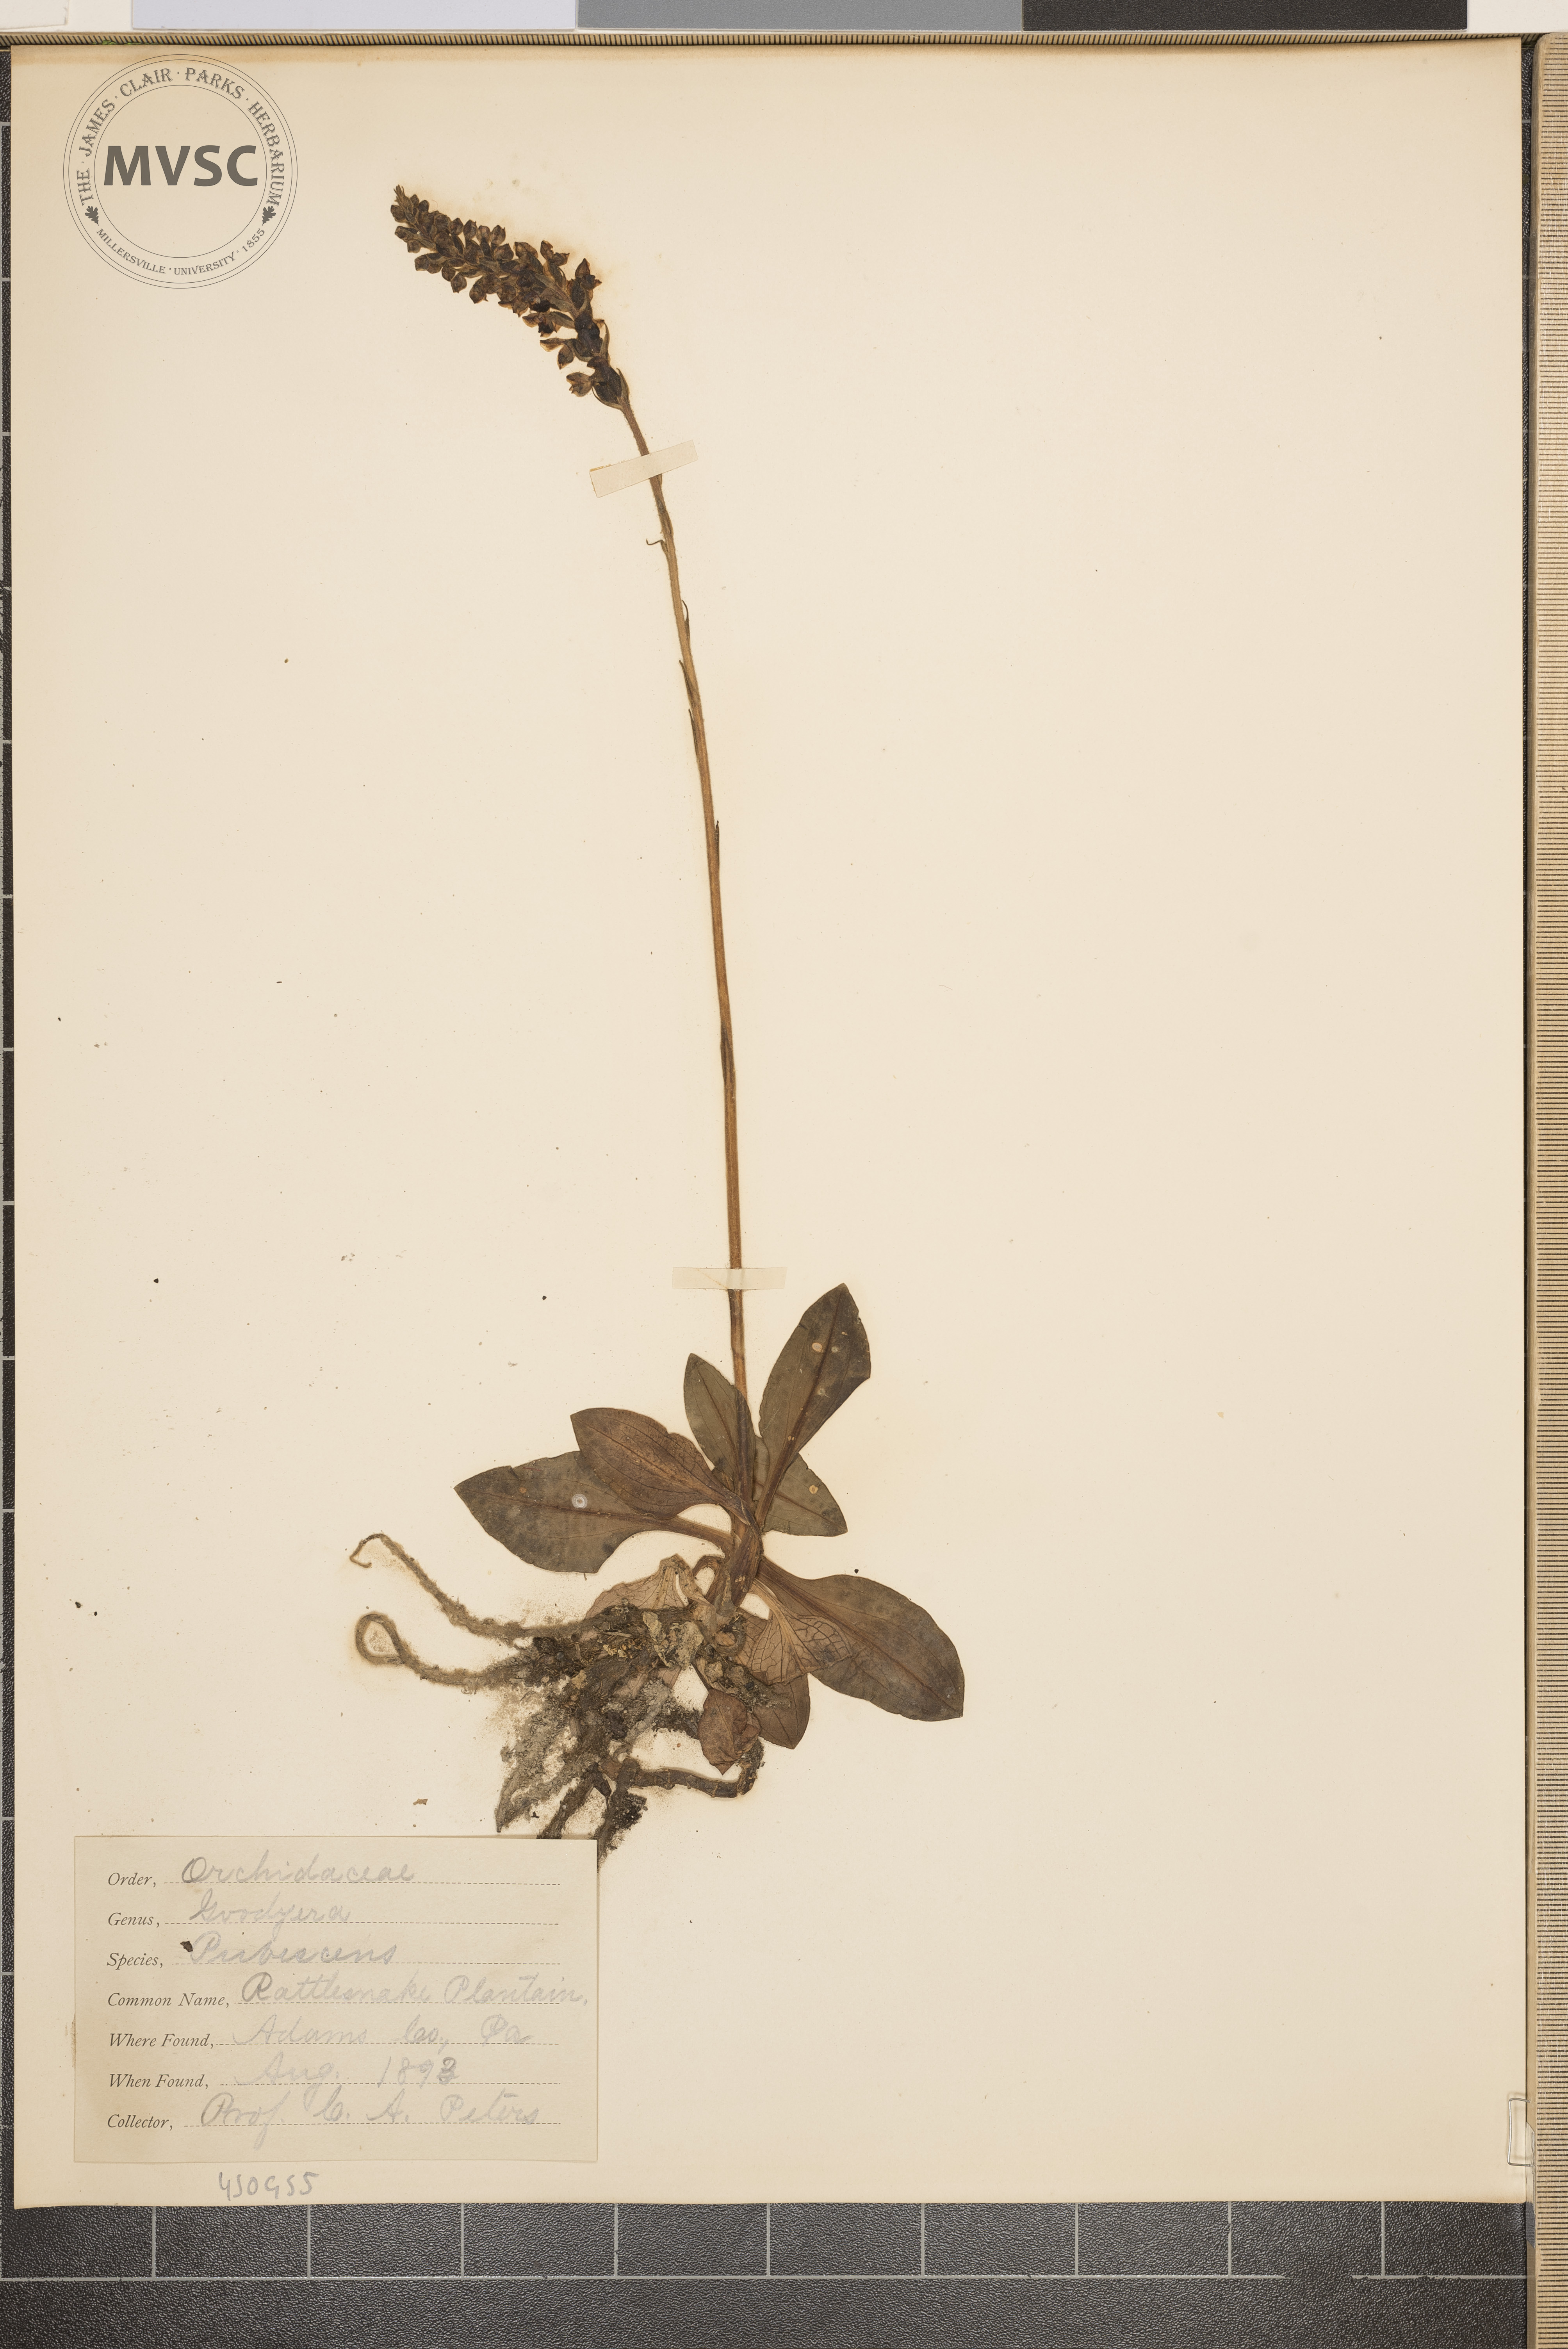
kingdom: Plantae
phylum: Tracheophyta
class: Liliopsida
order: Asparagales
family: Orchidaceae
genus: Goodyera
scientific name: Goodyera pubescens
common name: Rattlesnake plantain
